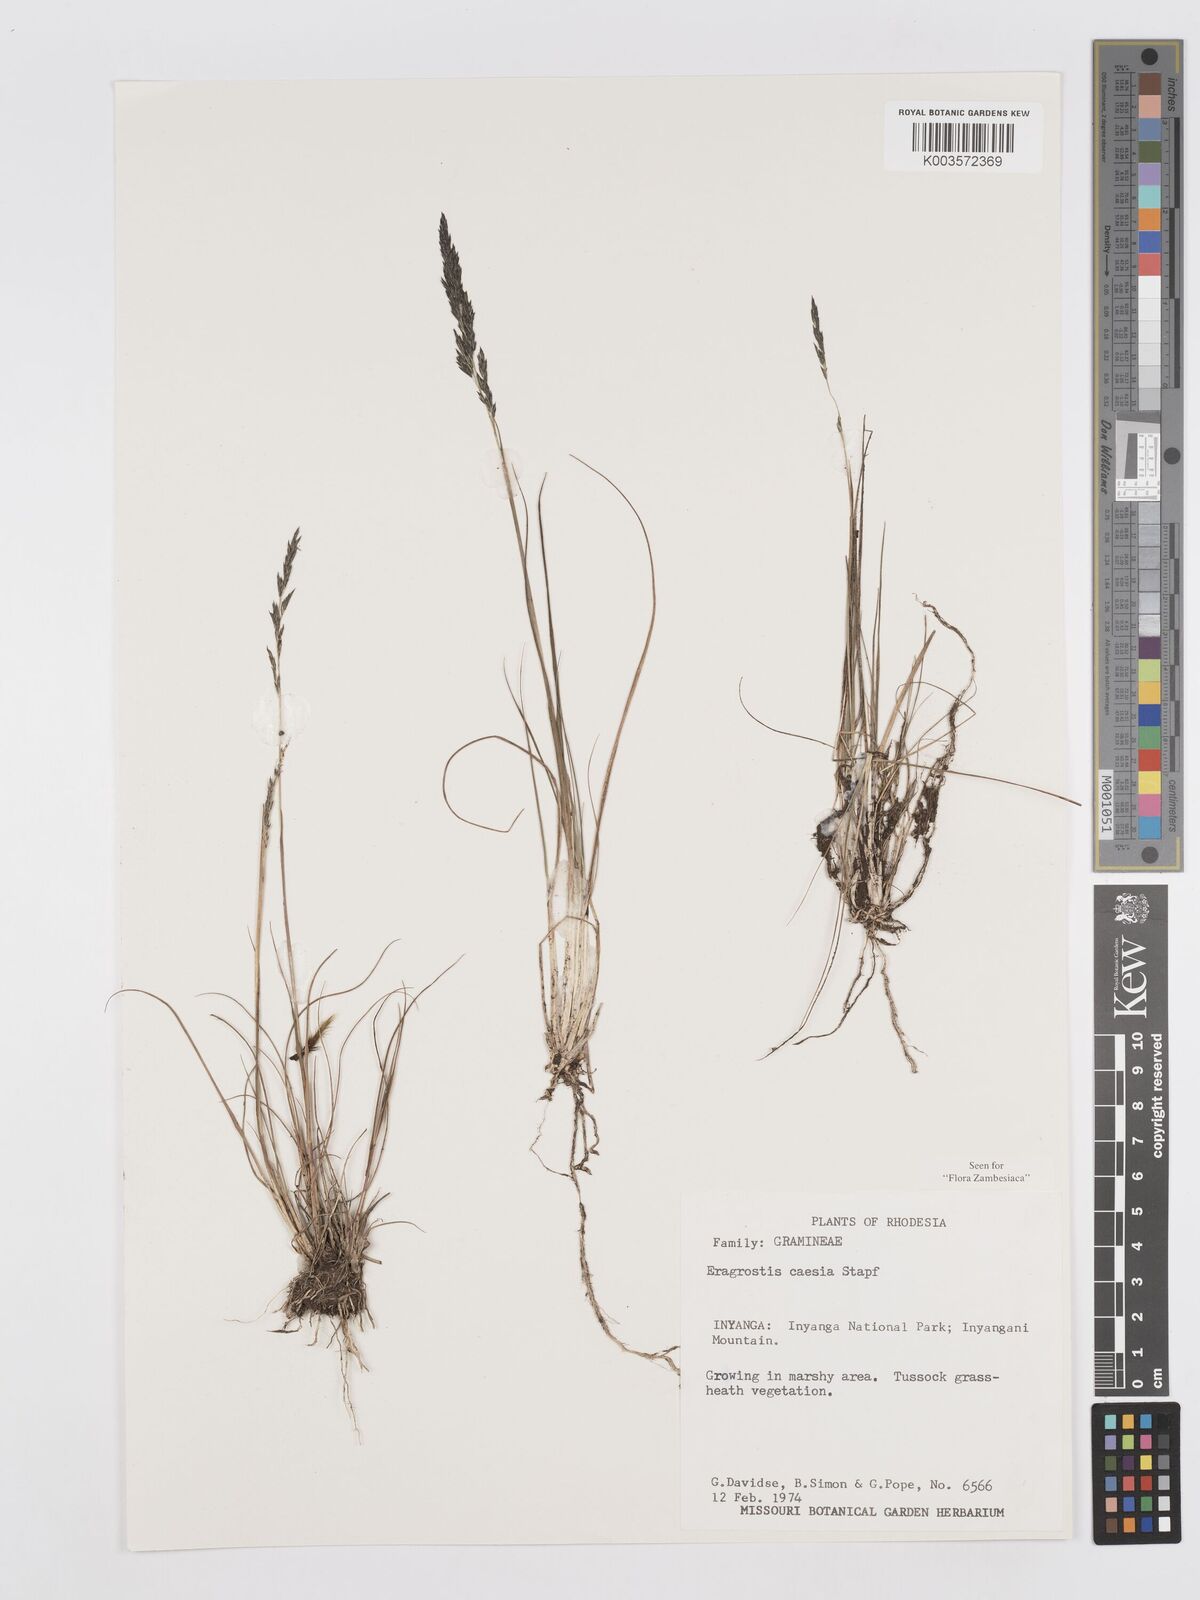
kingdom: Plantae
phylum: Tracheophyta
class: Liliopsida
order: Poales
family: Poaceae
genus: Eragrostis
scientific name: Eragrostis caesia
